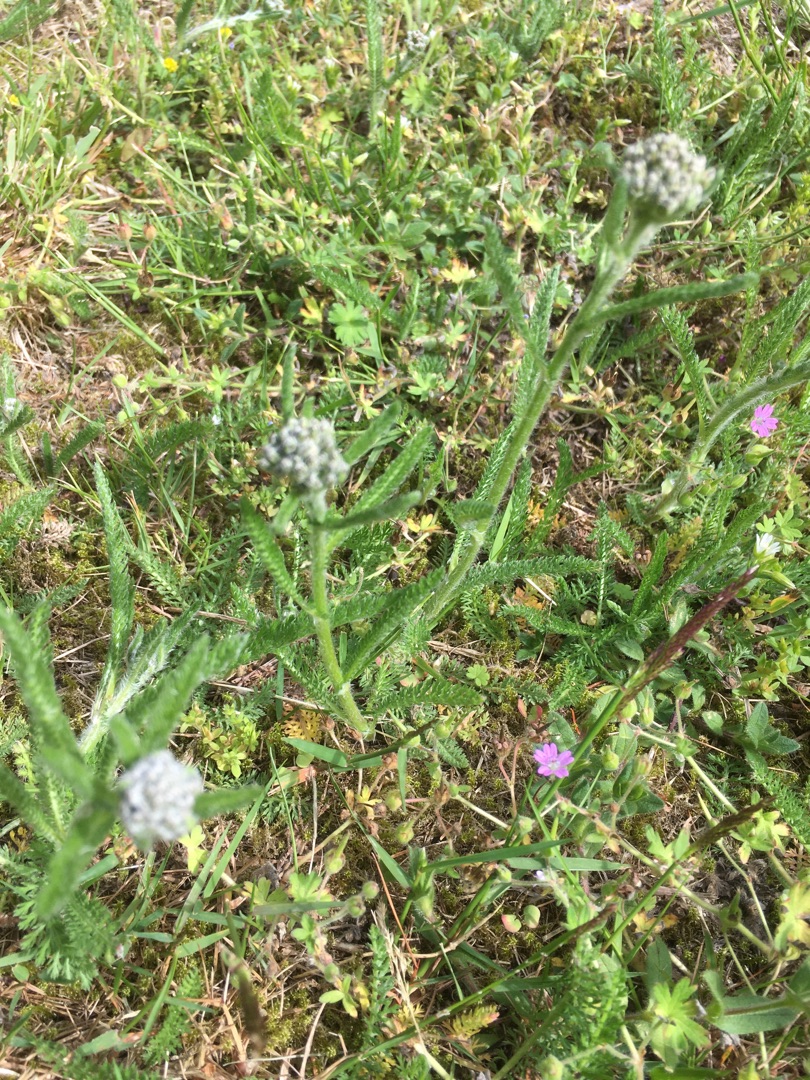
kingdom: Plantae
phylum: Tracheophyta
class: Magnoliopsida
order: Asterales
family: Asteraceae
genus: Achillea
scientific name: Achillea millefolium
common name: Almindelig røllike
